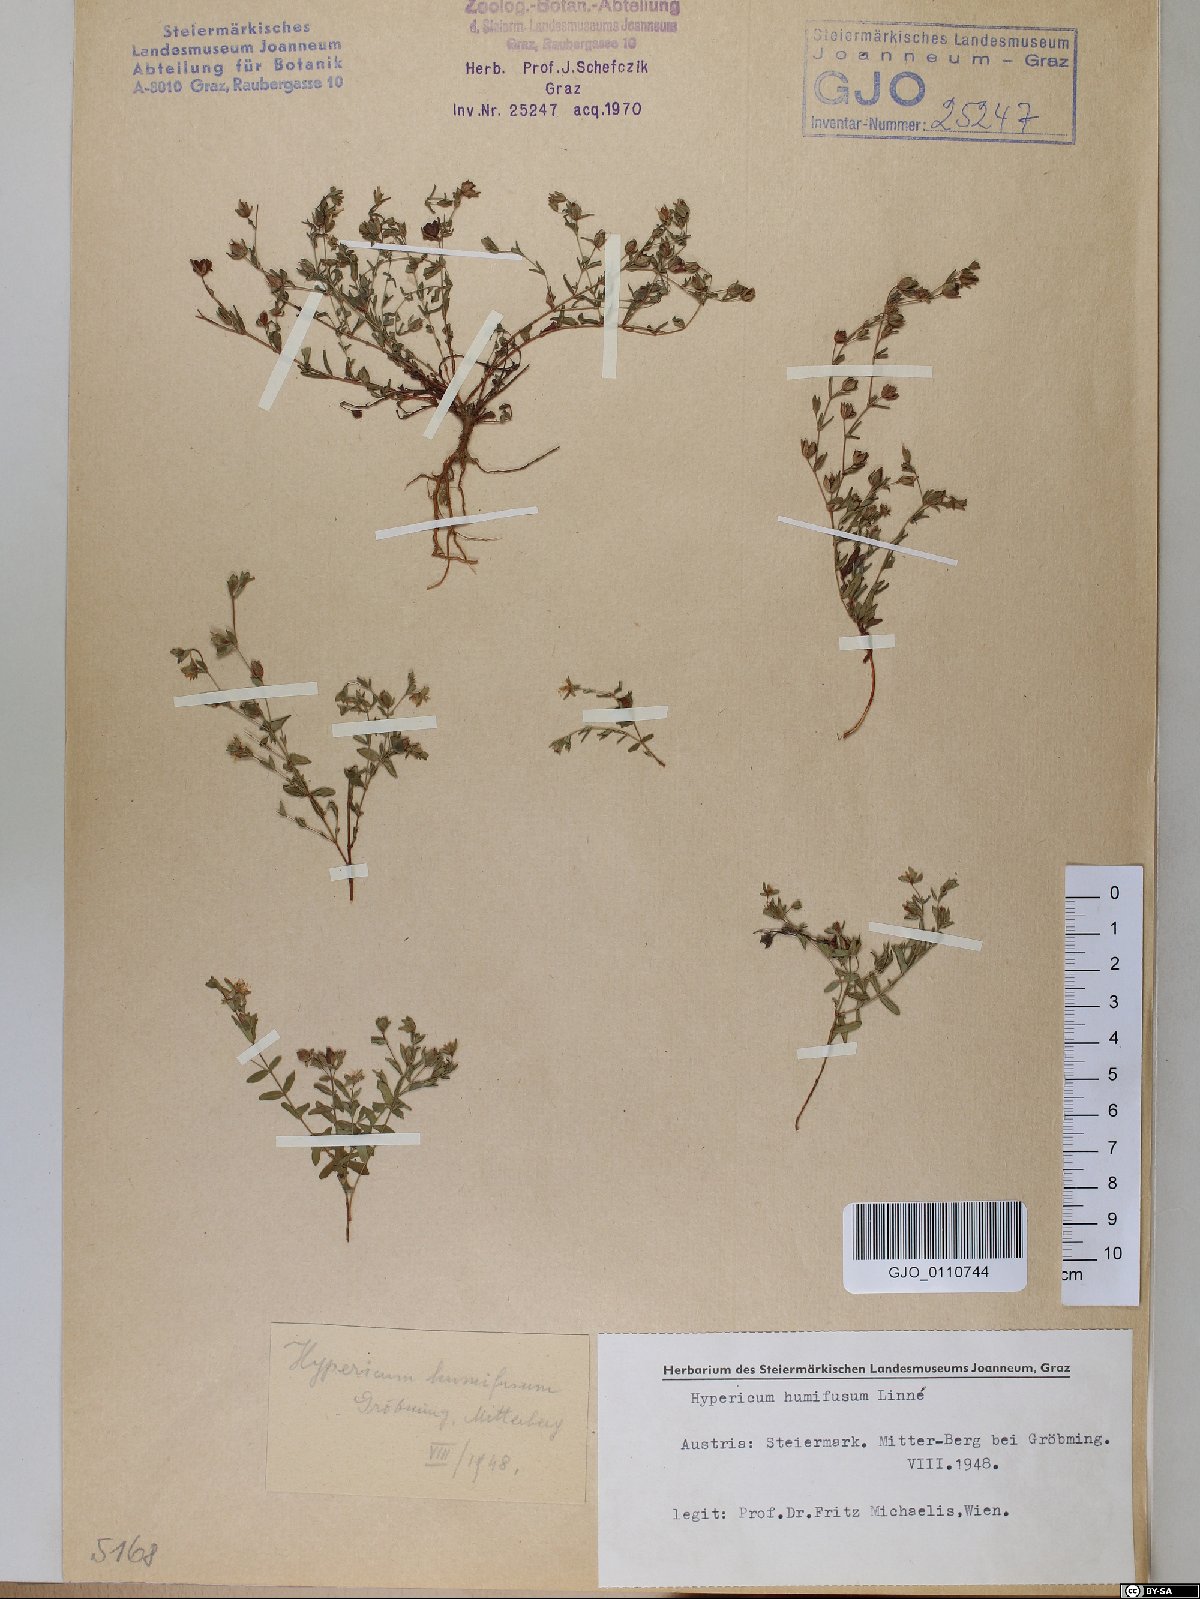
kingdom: Plantae
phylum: Tracheophyta
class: Magnoliopsida
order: Malpighiales
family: Hypericaceae
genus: Hypericum
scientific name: Hypericum humifusum
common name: Trailing st. john's-wort
